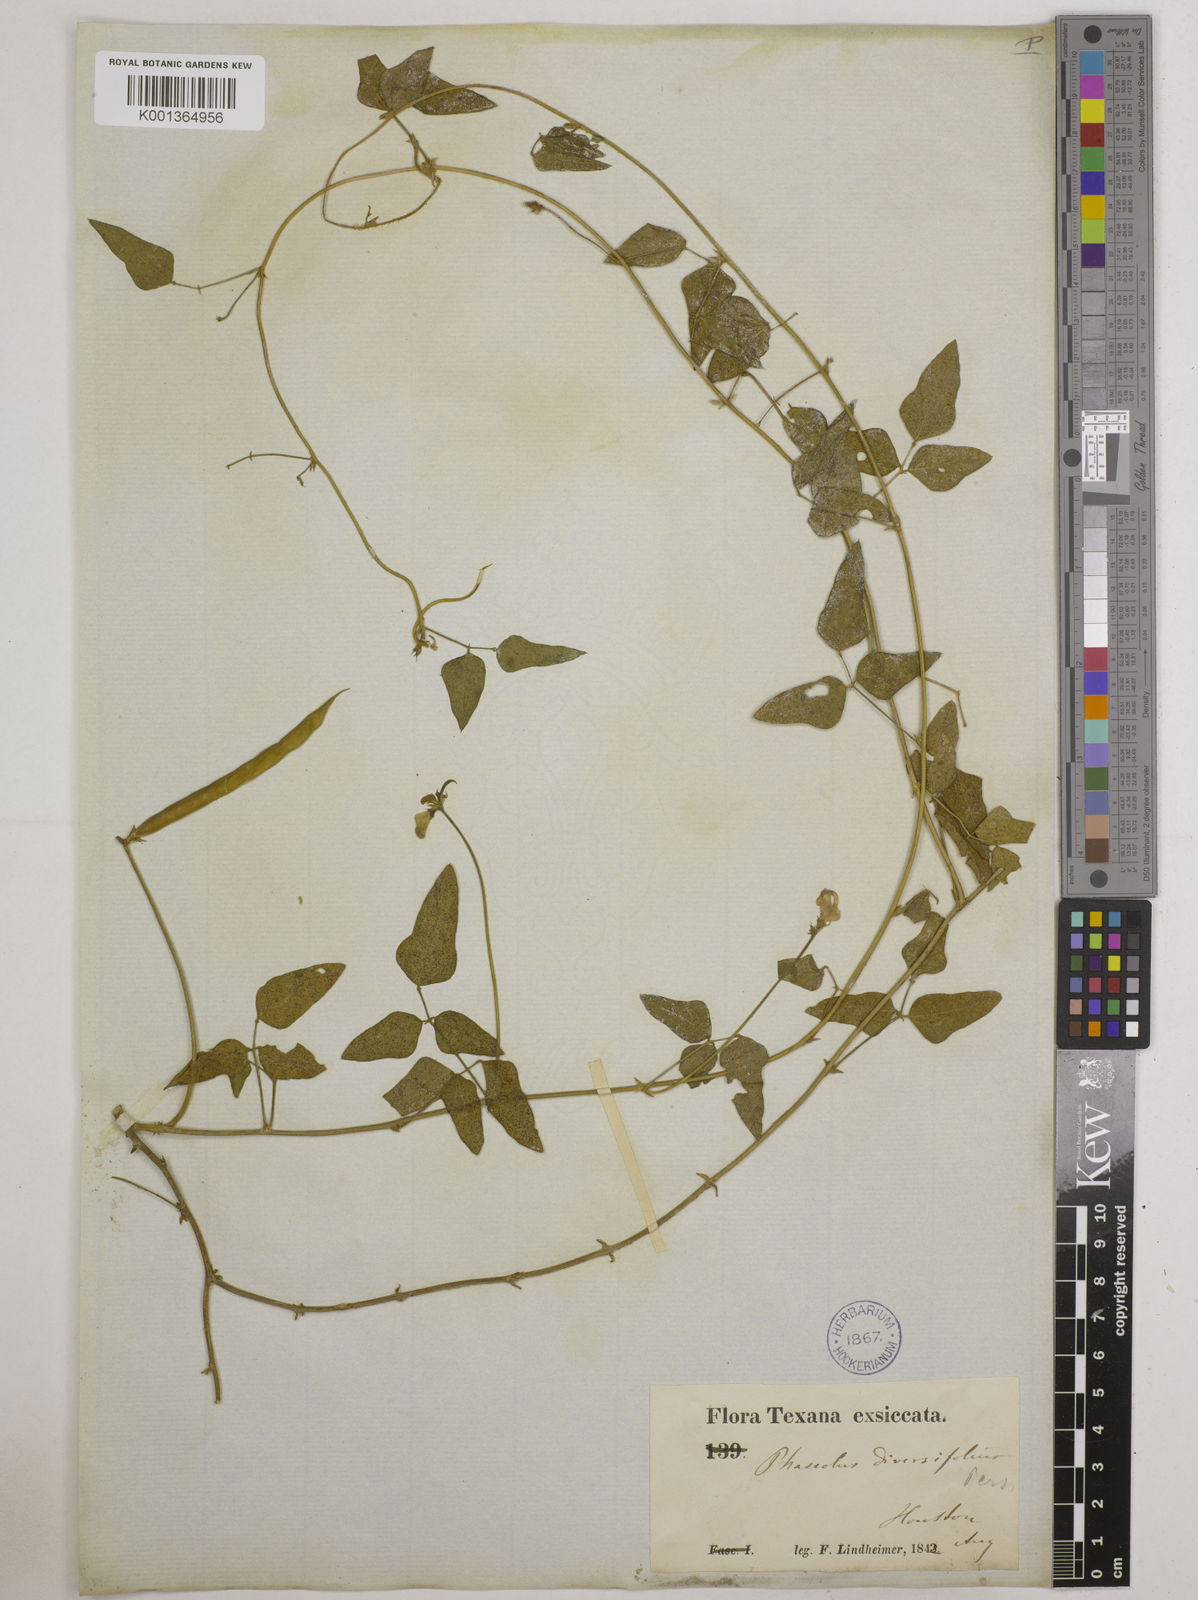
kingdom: Plantae
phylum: Tracheophyta
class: Magnoliopsida
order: Fabales
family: Fabaceae
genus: Strophostyles
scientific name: Strophostyles
